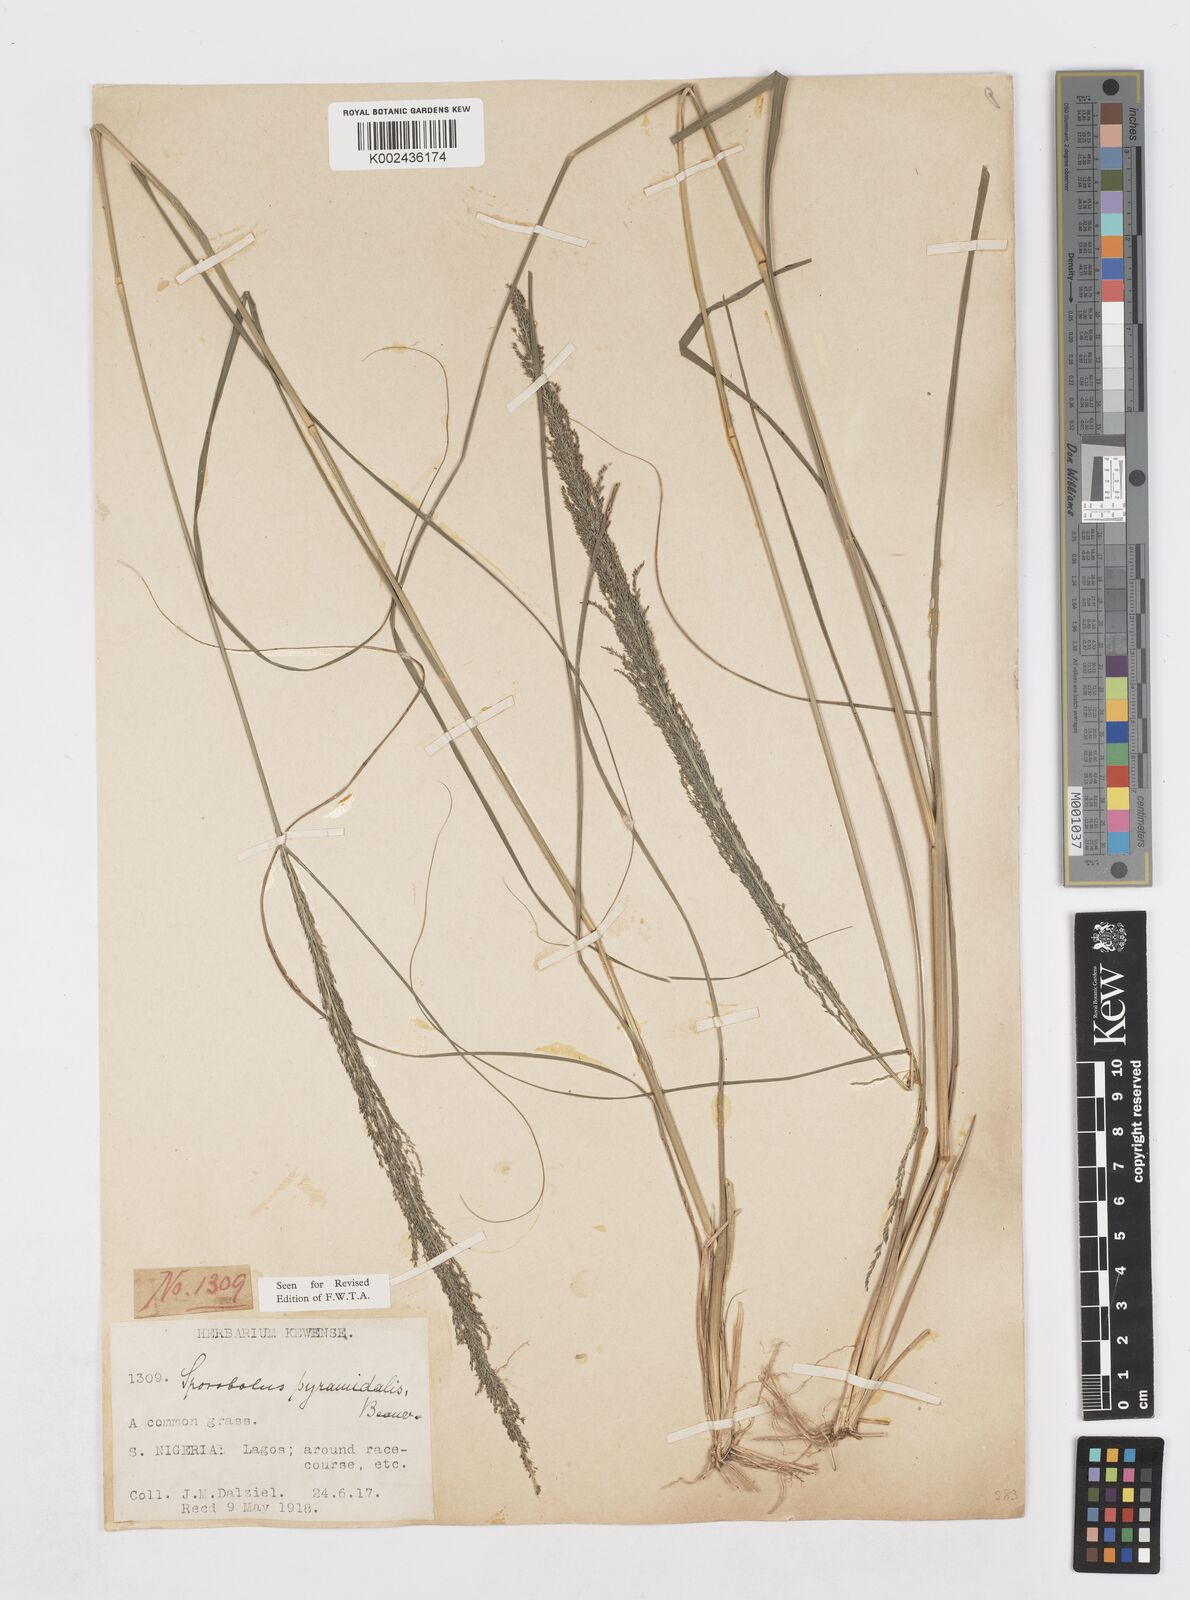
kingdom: Plantae
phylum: Tracheophyta
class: Liliopsida
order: Poales
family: Poaceae
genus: Sporobolus
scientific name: Sporobolus pyramidalis
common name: West indian dropseed
